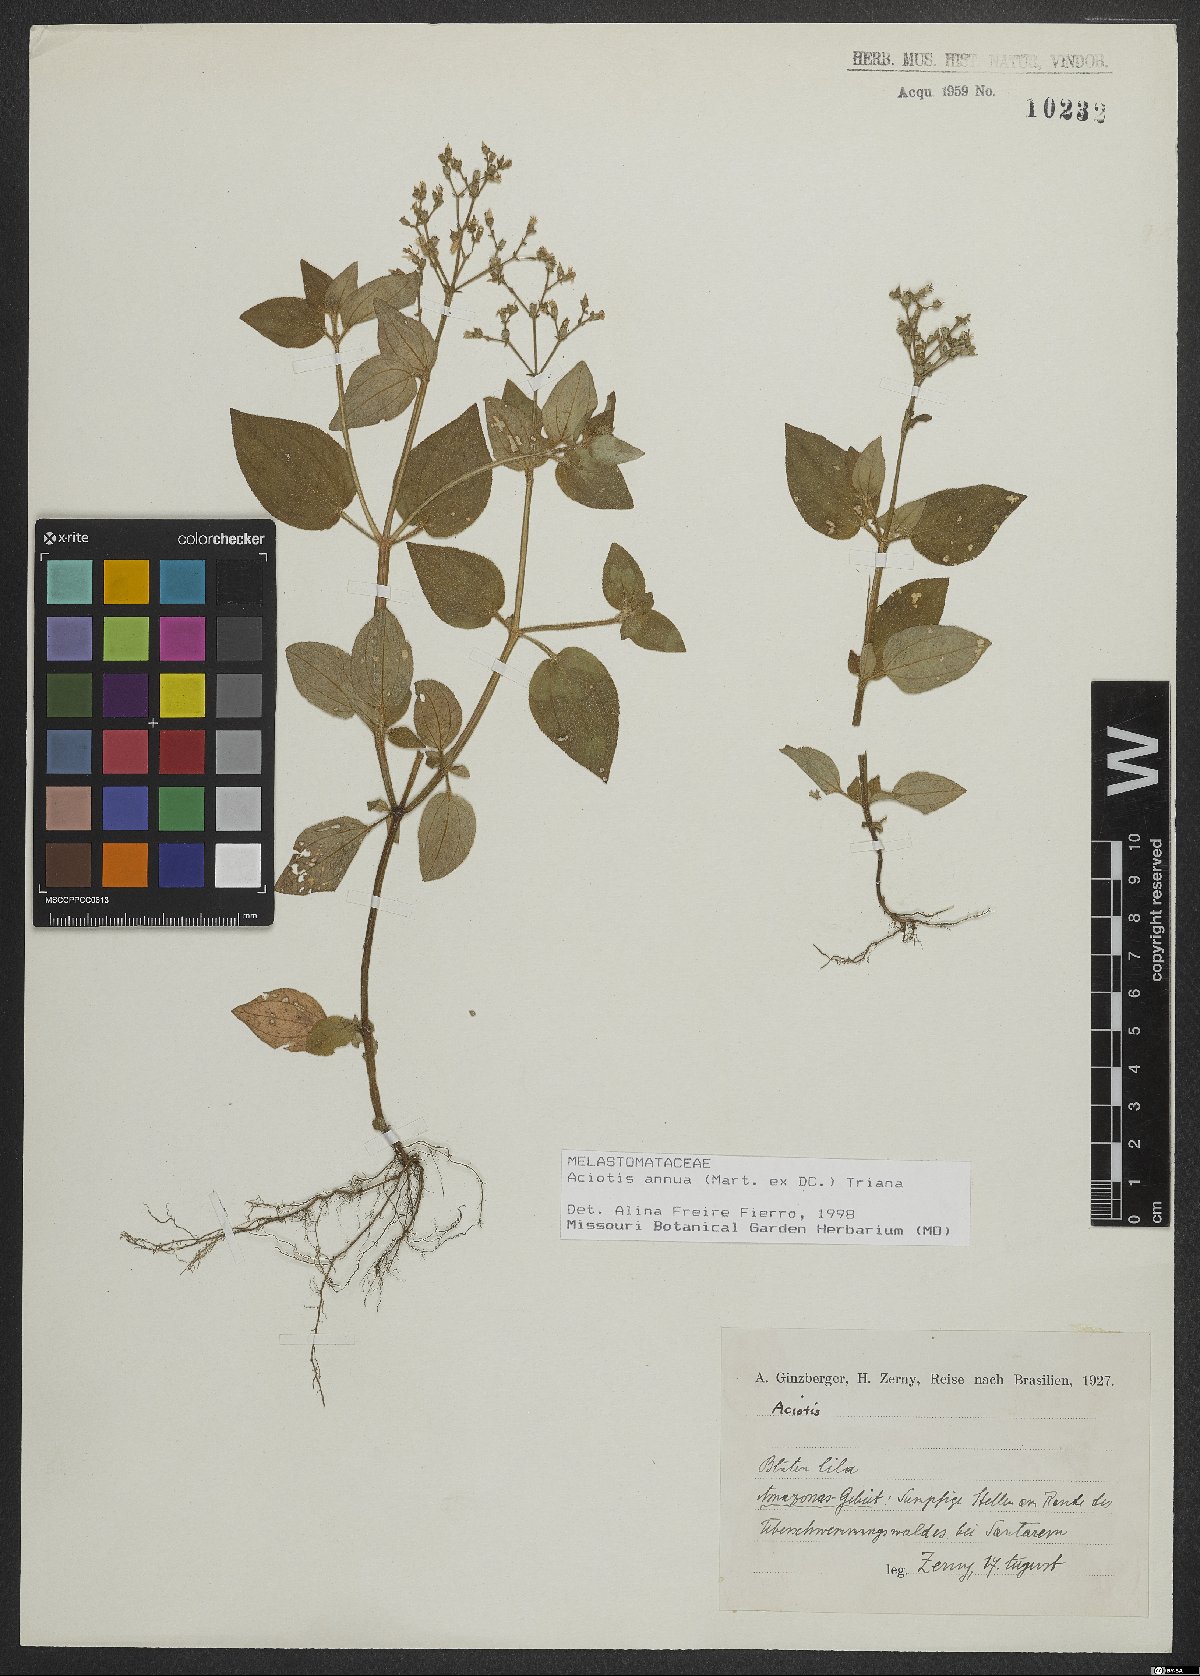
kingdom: Plantae
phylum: Tracheophyta
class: Magnoliopsida
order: Myrtales
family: Melastomataceae
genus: Aciotis
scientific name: Aciotis annua
